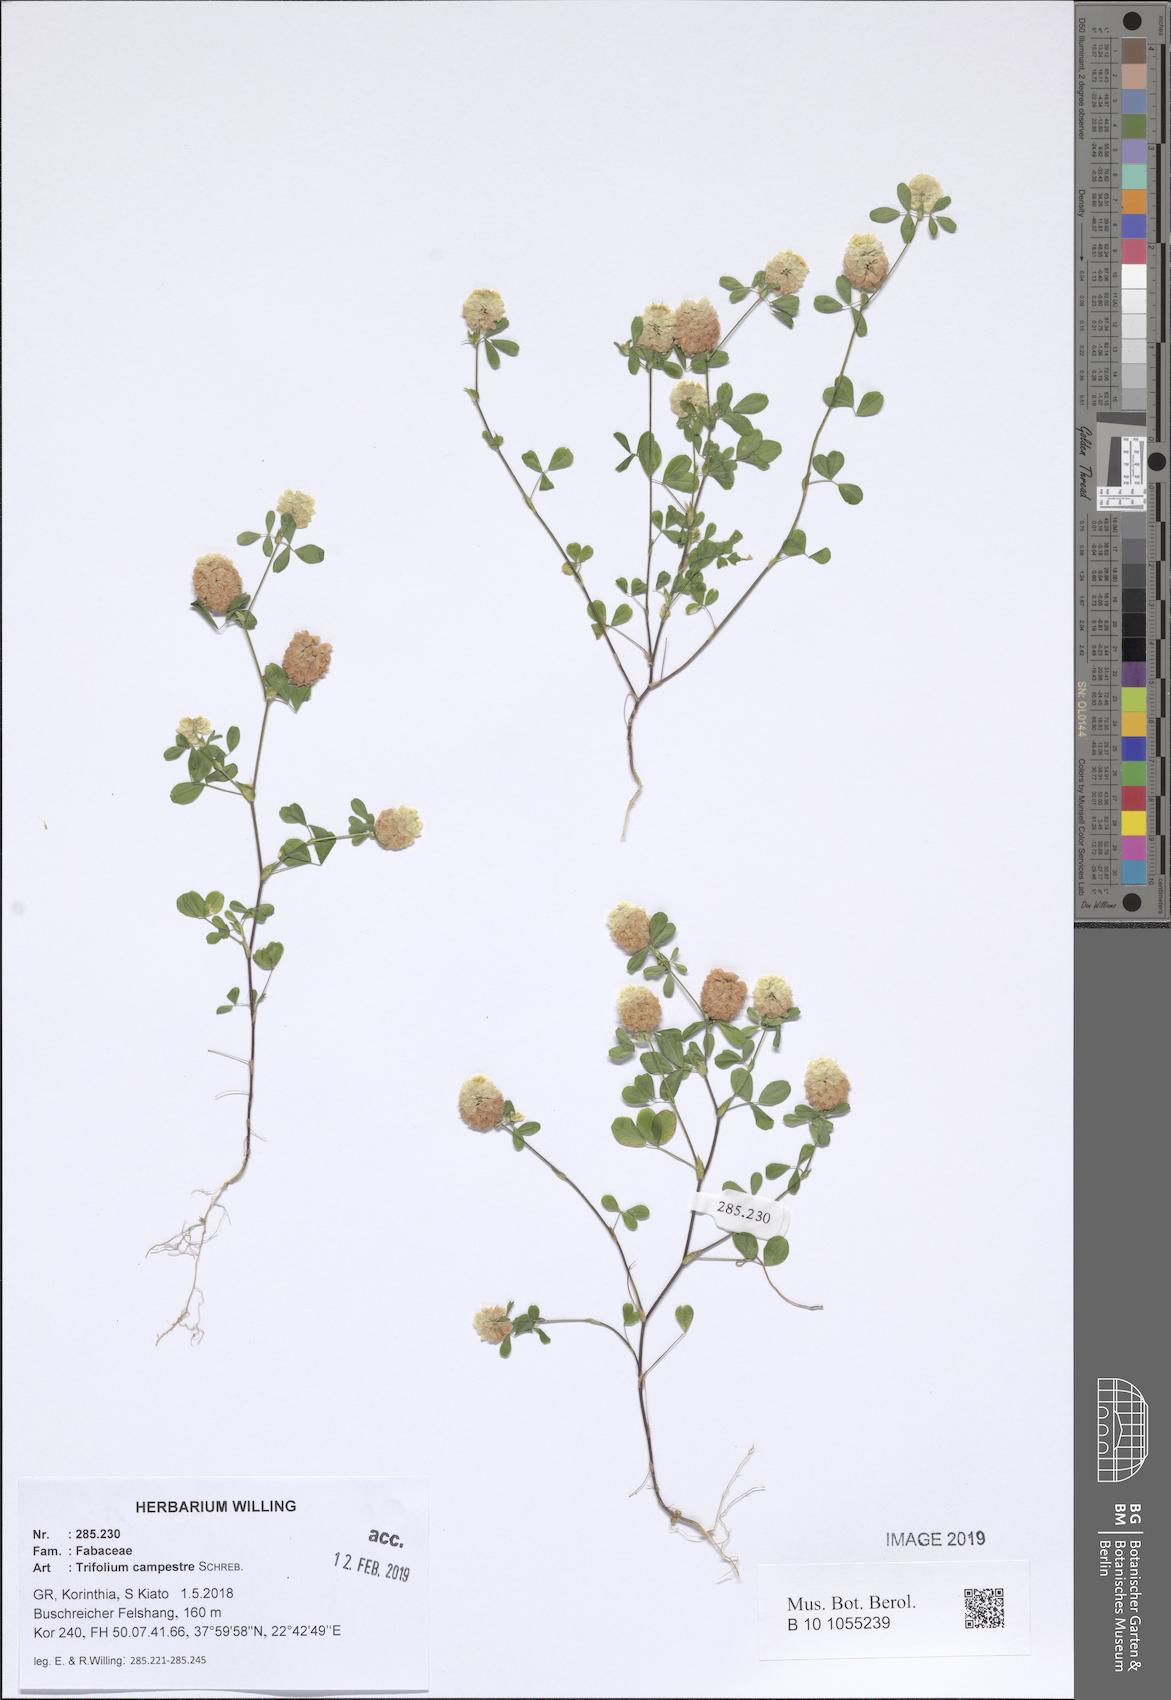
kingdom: Plantae
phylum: Tracheophyta
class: Magnoliopsida
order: Fabales
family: Fabaceae
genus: Trifolium
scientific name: Trifolium campestre
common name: Field clover
